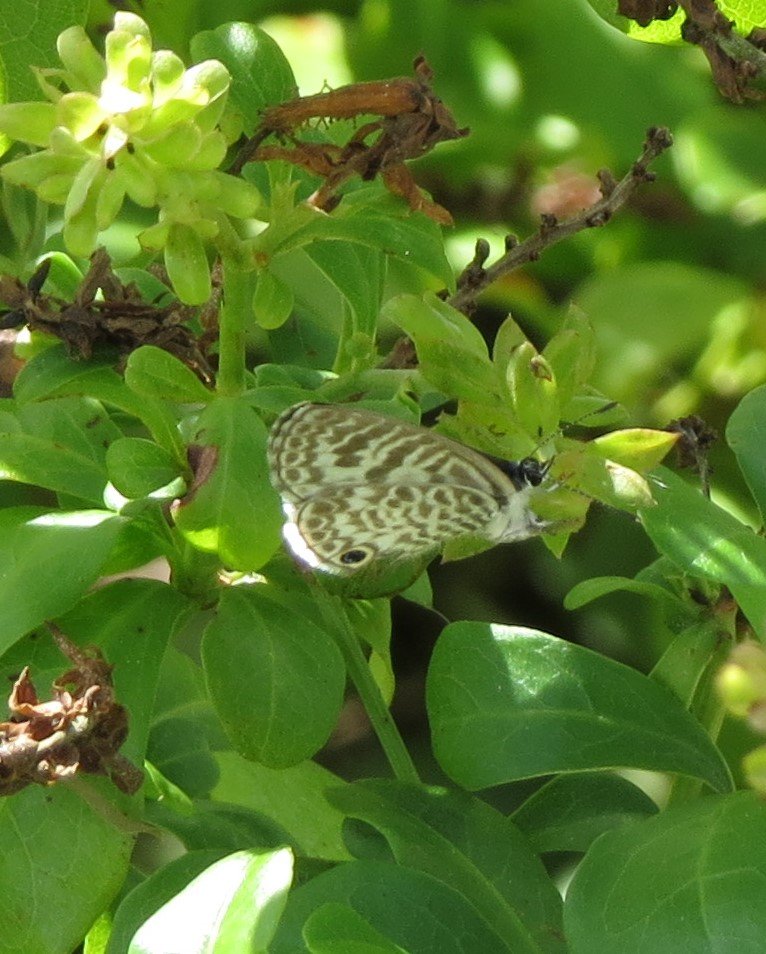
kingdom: Animalia
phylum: Arthropoda
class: Insecta
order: Lepidoptera
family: Lycaenidae
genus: Leptotes
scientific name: Leptotes cassius
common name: Cassius Blue
